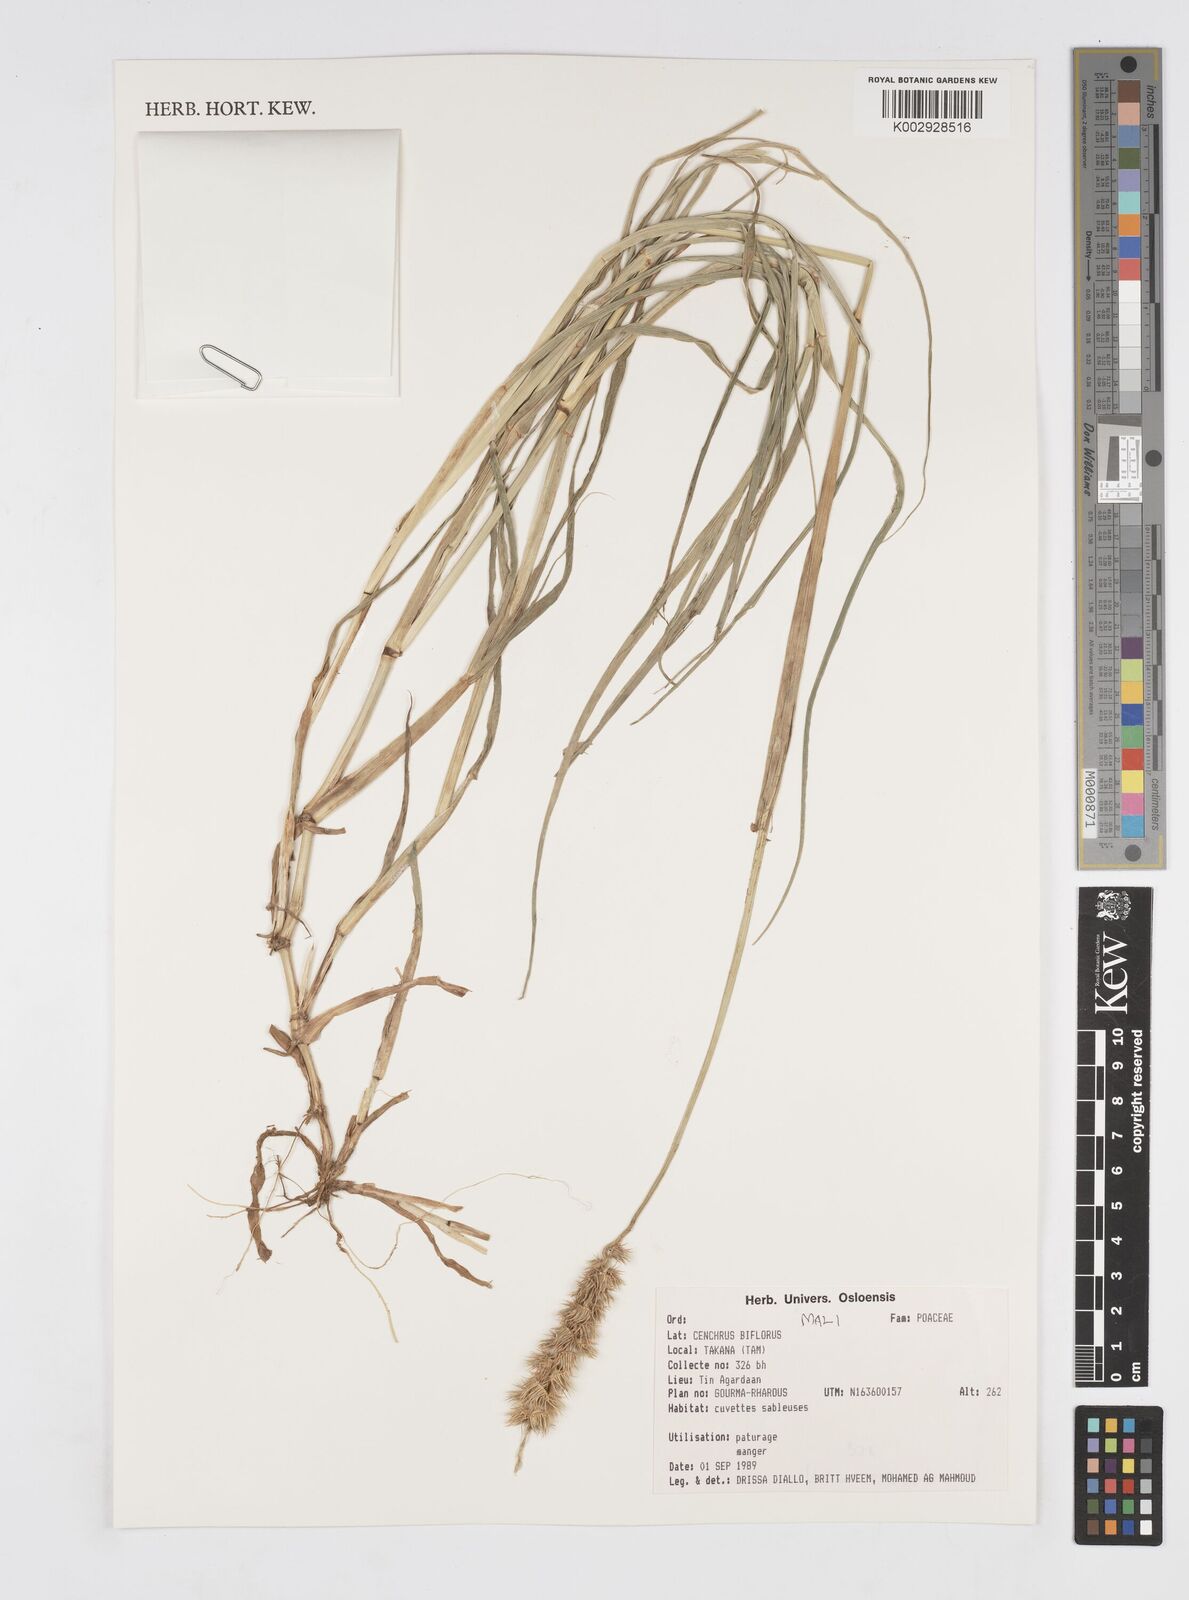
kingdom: Plantae
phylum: Tracheophyta
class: Liliopsida
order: Poales
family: Poaceae
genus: Cenchrus
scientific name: Cenchrus biflorus
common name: Indian sandbur
